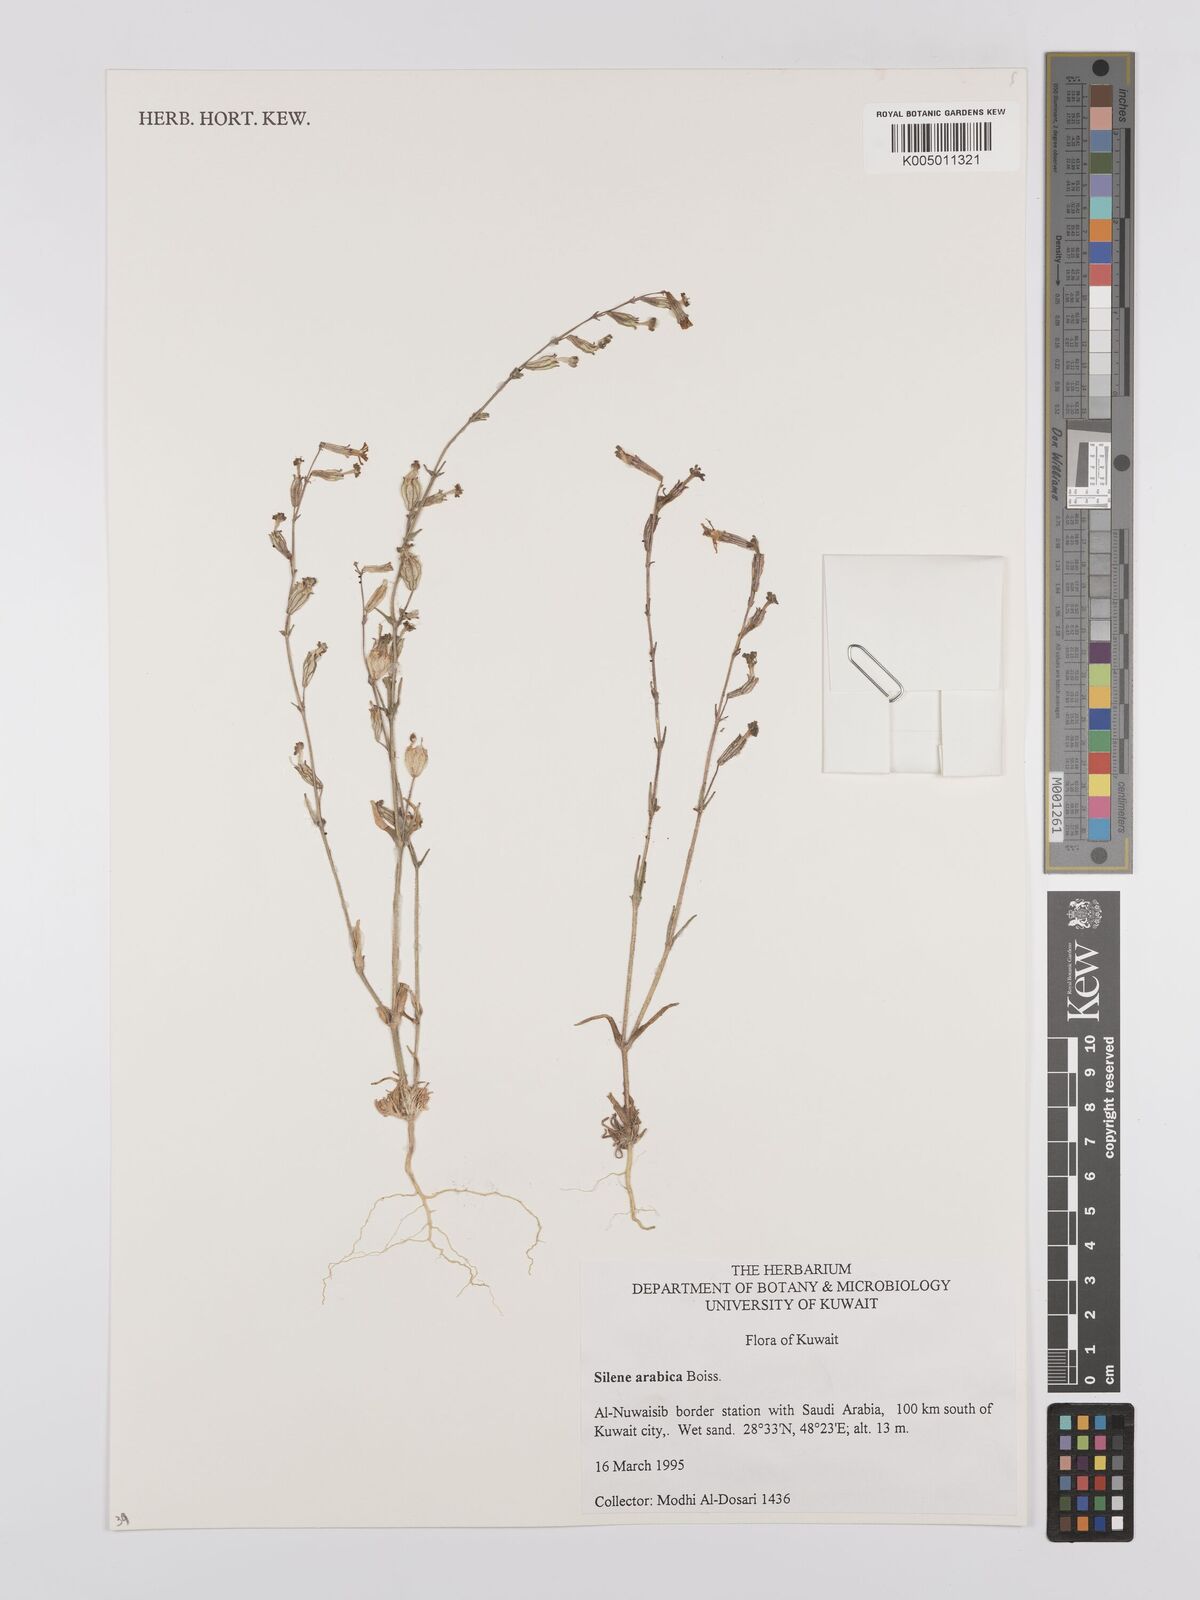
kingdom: Plantae
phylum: Tracheophyta
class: Magnoliopsida
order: Caryophyllales
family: Caryophyllaceae
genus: Silene
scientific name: Silene arabica
